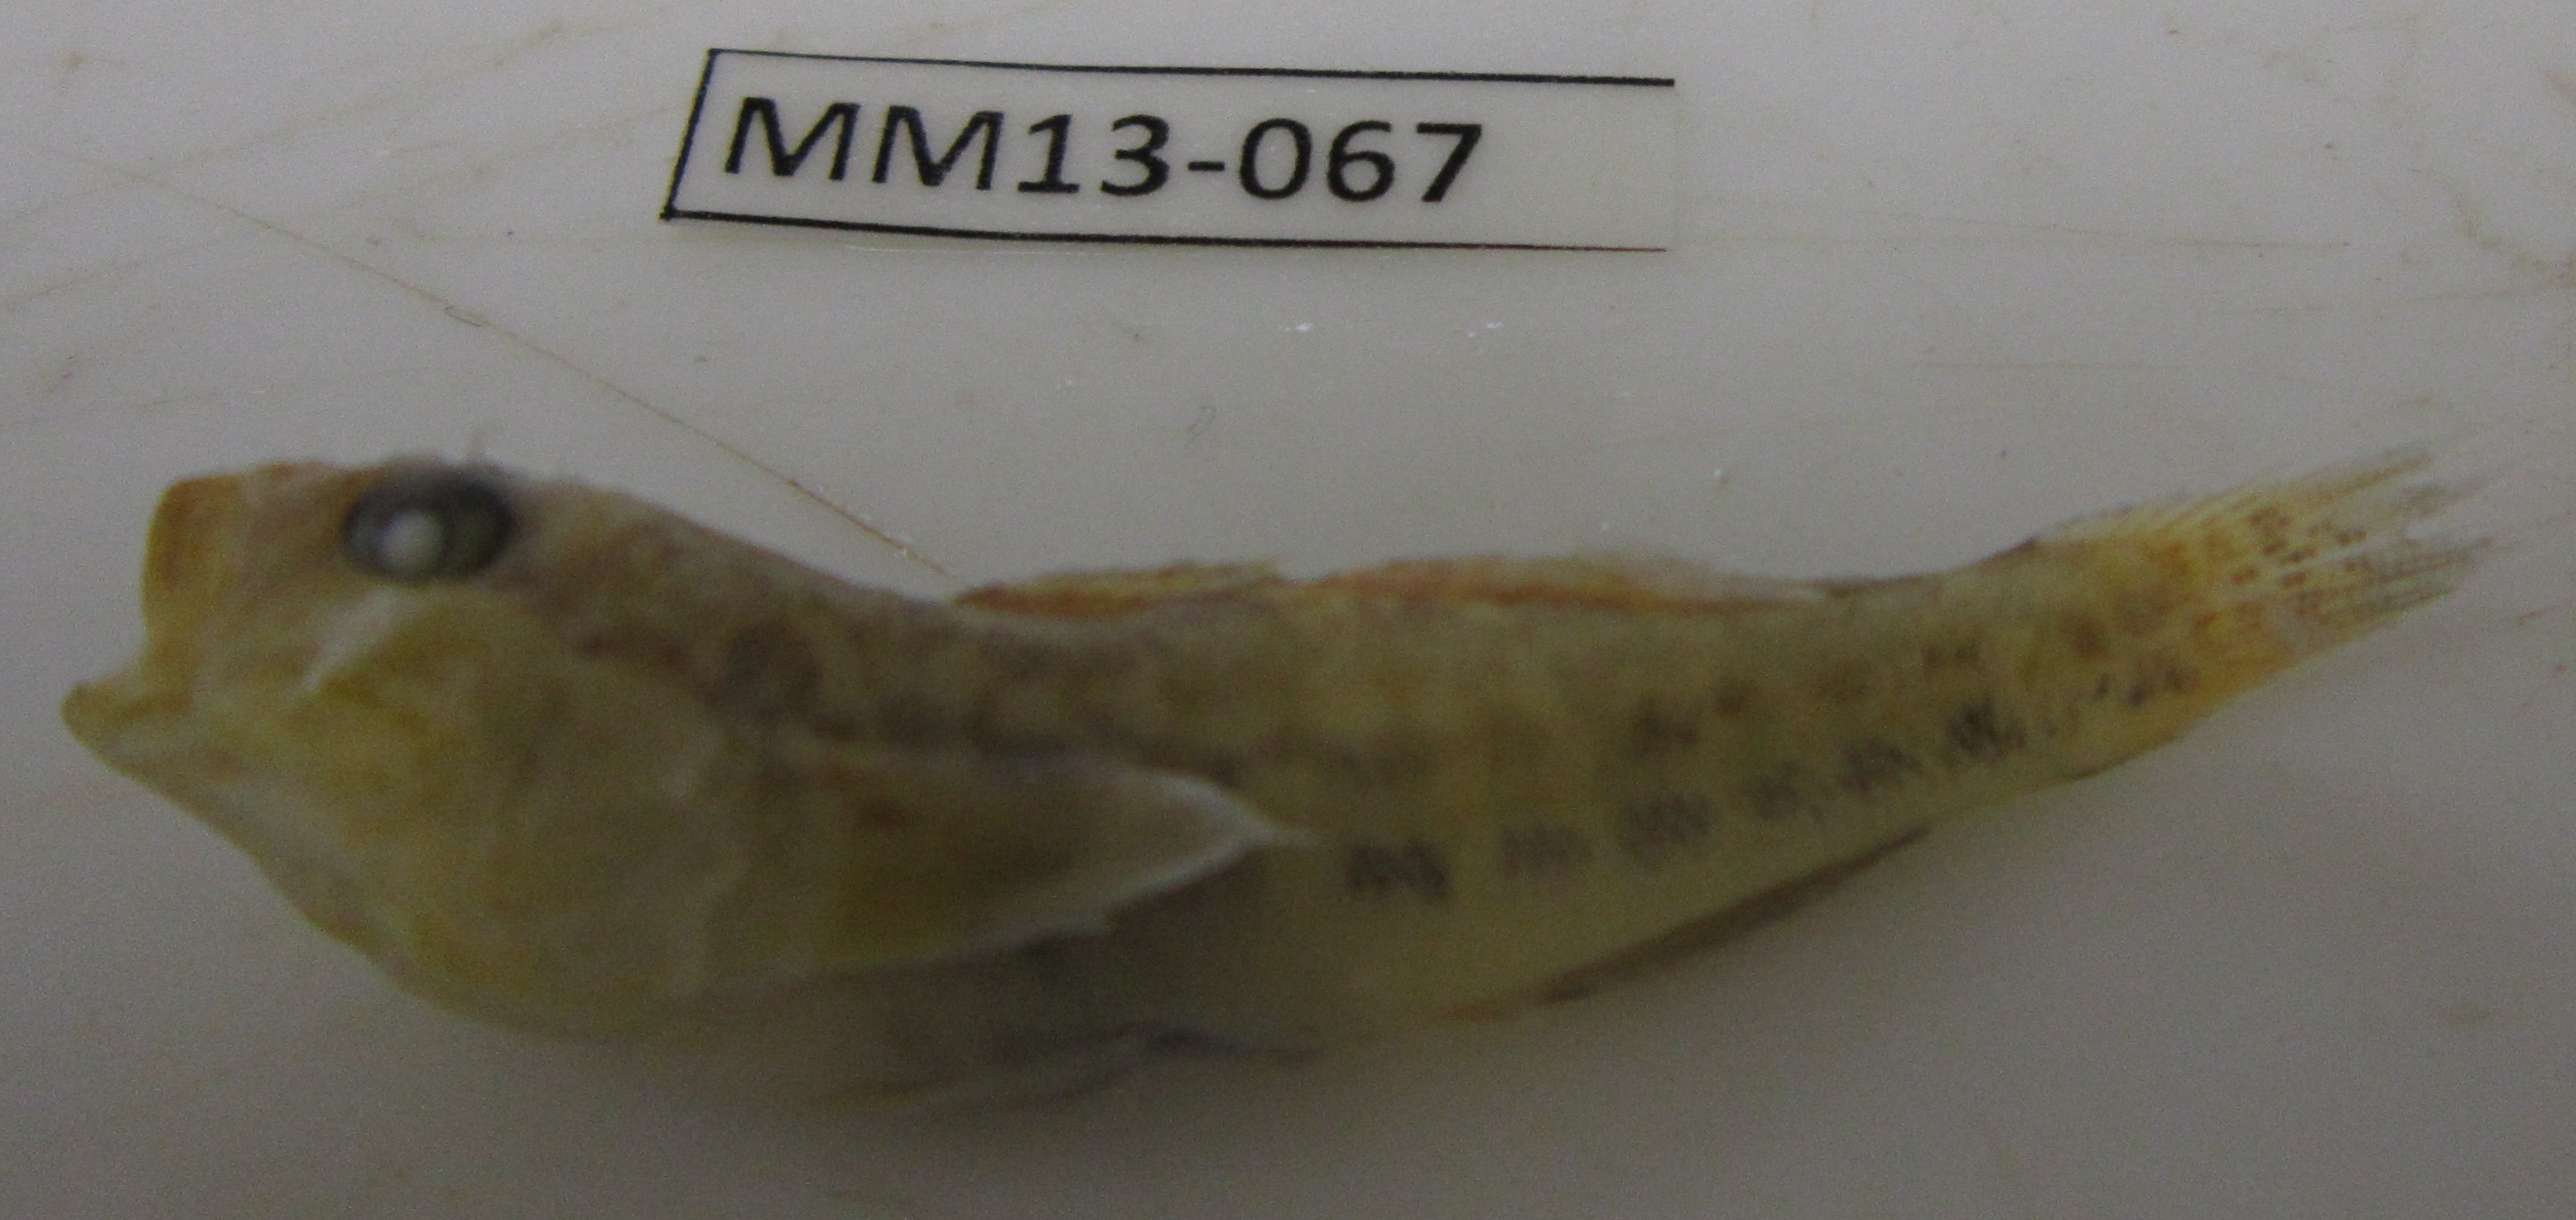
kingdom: Animalia
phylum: Chordata
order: Perciformes
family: Gobiidae
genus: Caffrogobius
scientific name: Caffrogobius
